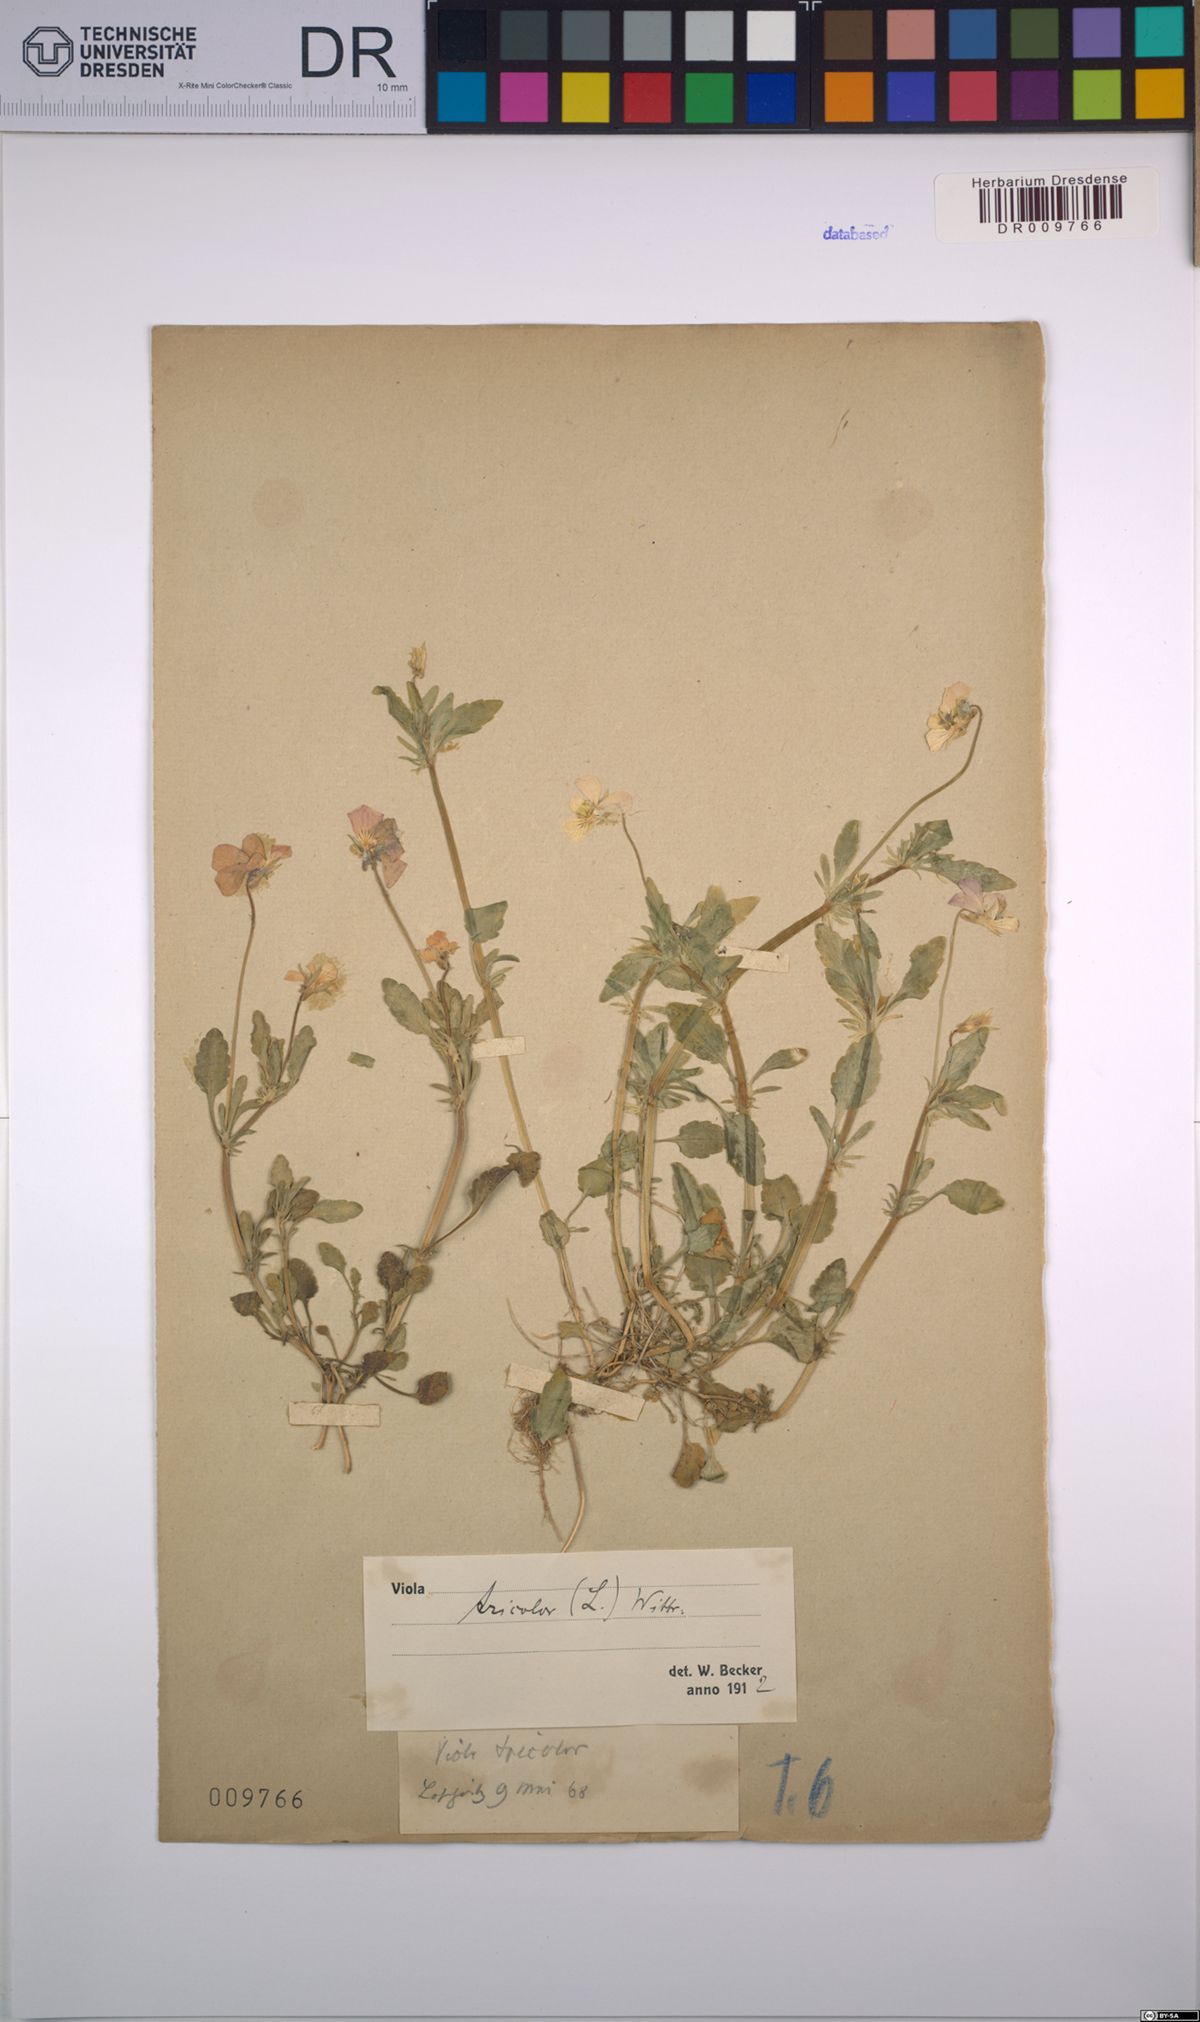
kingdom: Plantae
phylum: Tracheophyta
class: Magnoliopsida
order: Malpighiales
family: Violaceae
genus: Viola
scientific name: Viola tricolor
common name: Pansy
